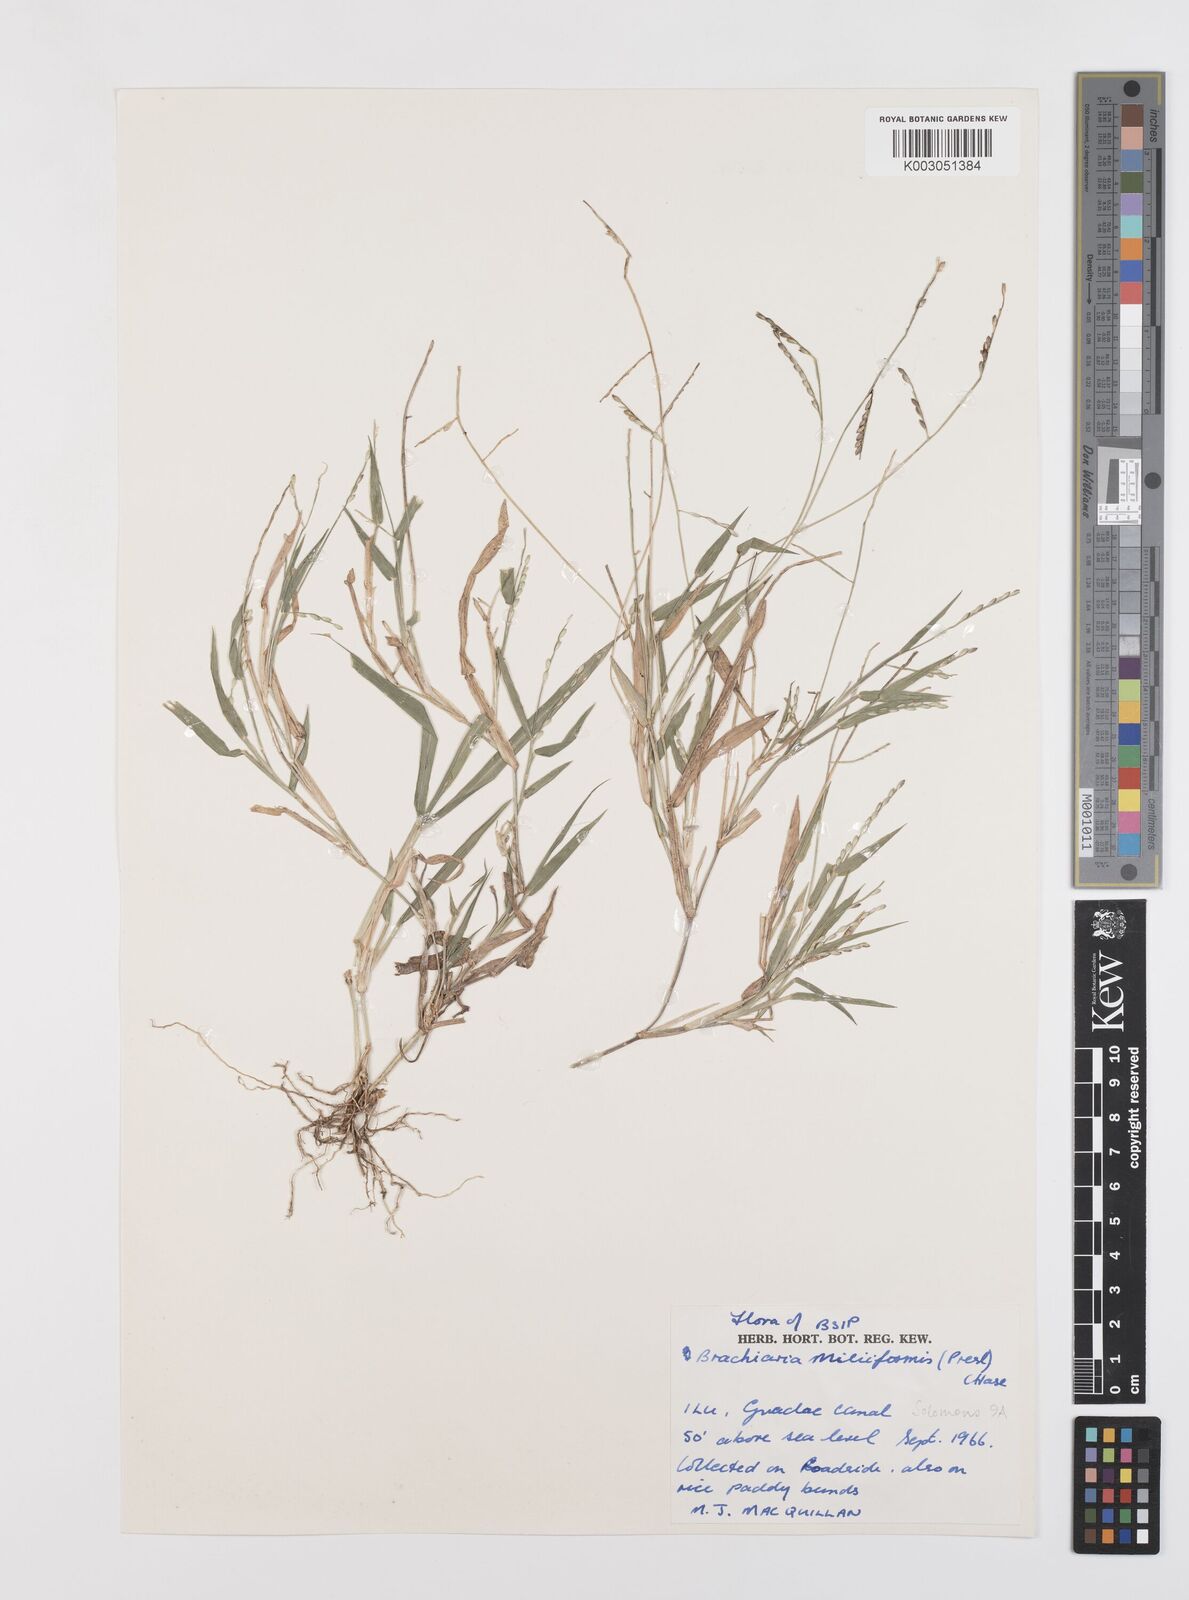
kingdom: Plantae
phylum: Tracheophyta
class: Liliopsida
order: Poales
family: Poaceae
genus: Urochloa
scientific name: Urochloa subquadripara
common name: Armgrass millet
